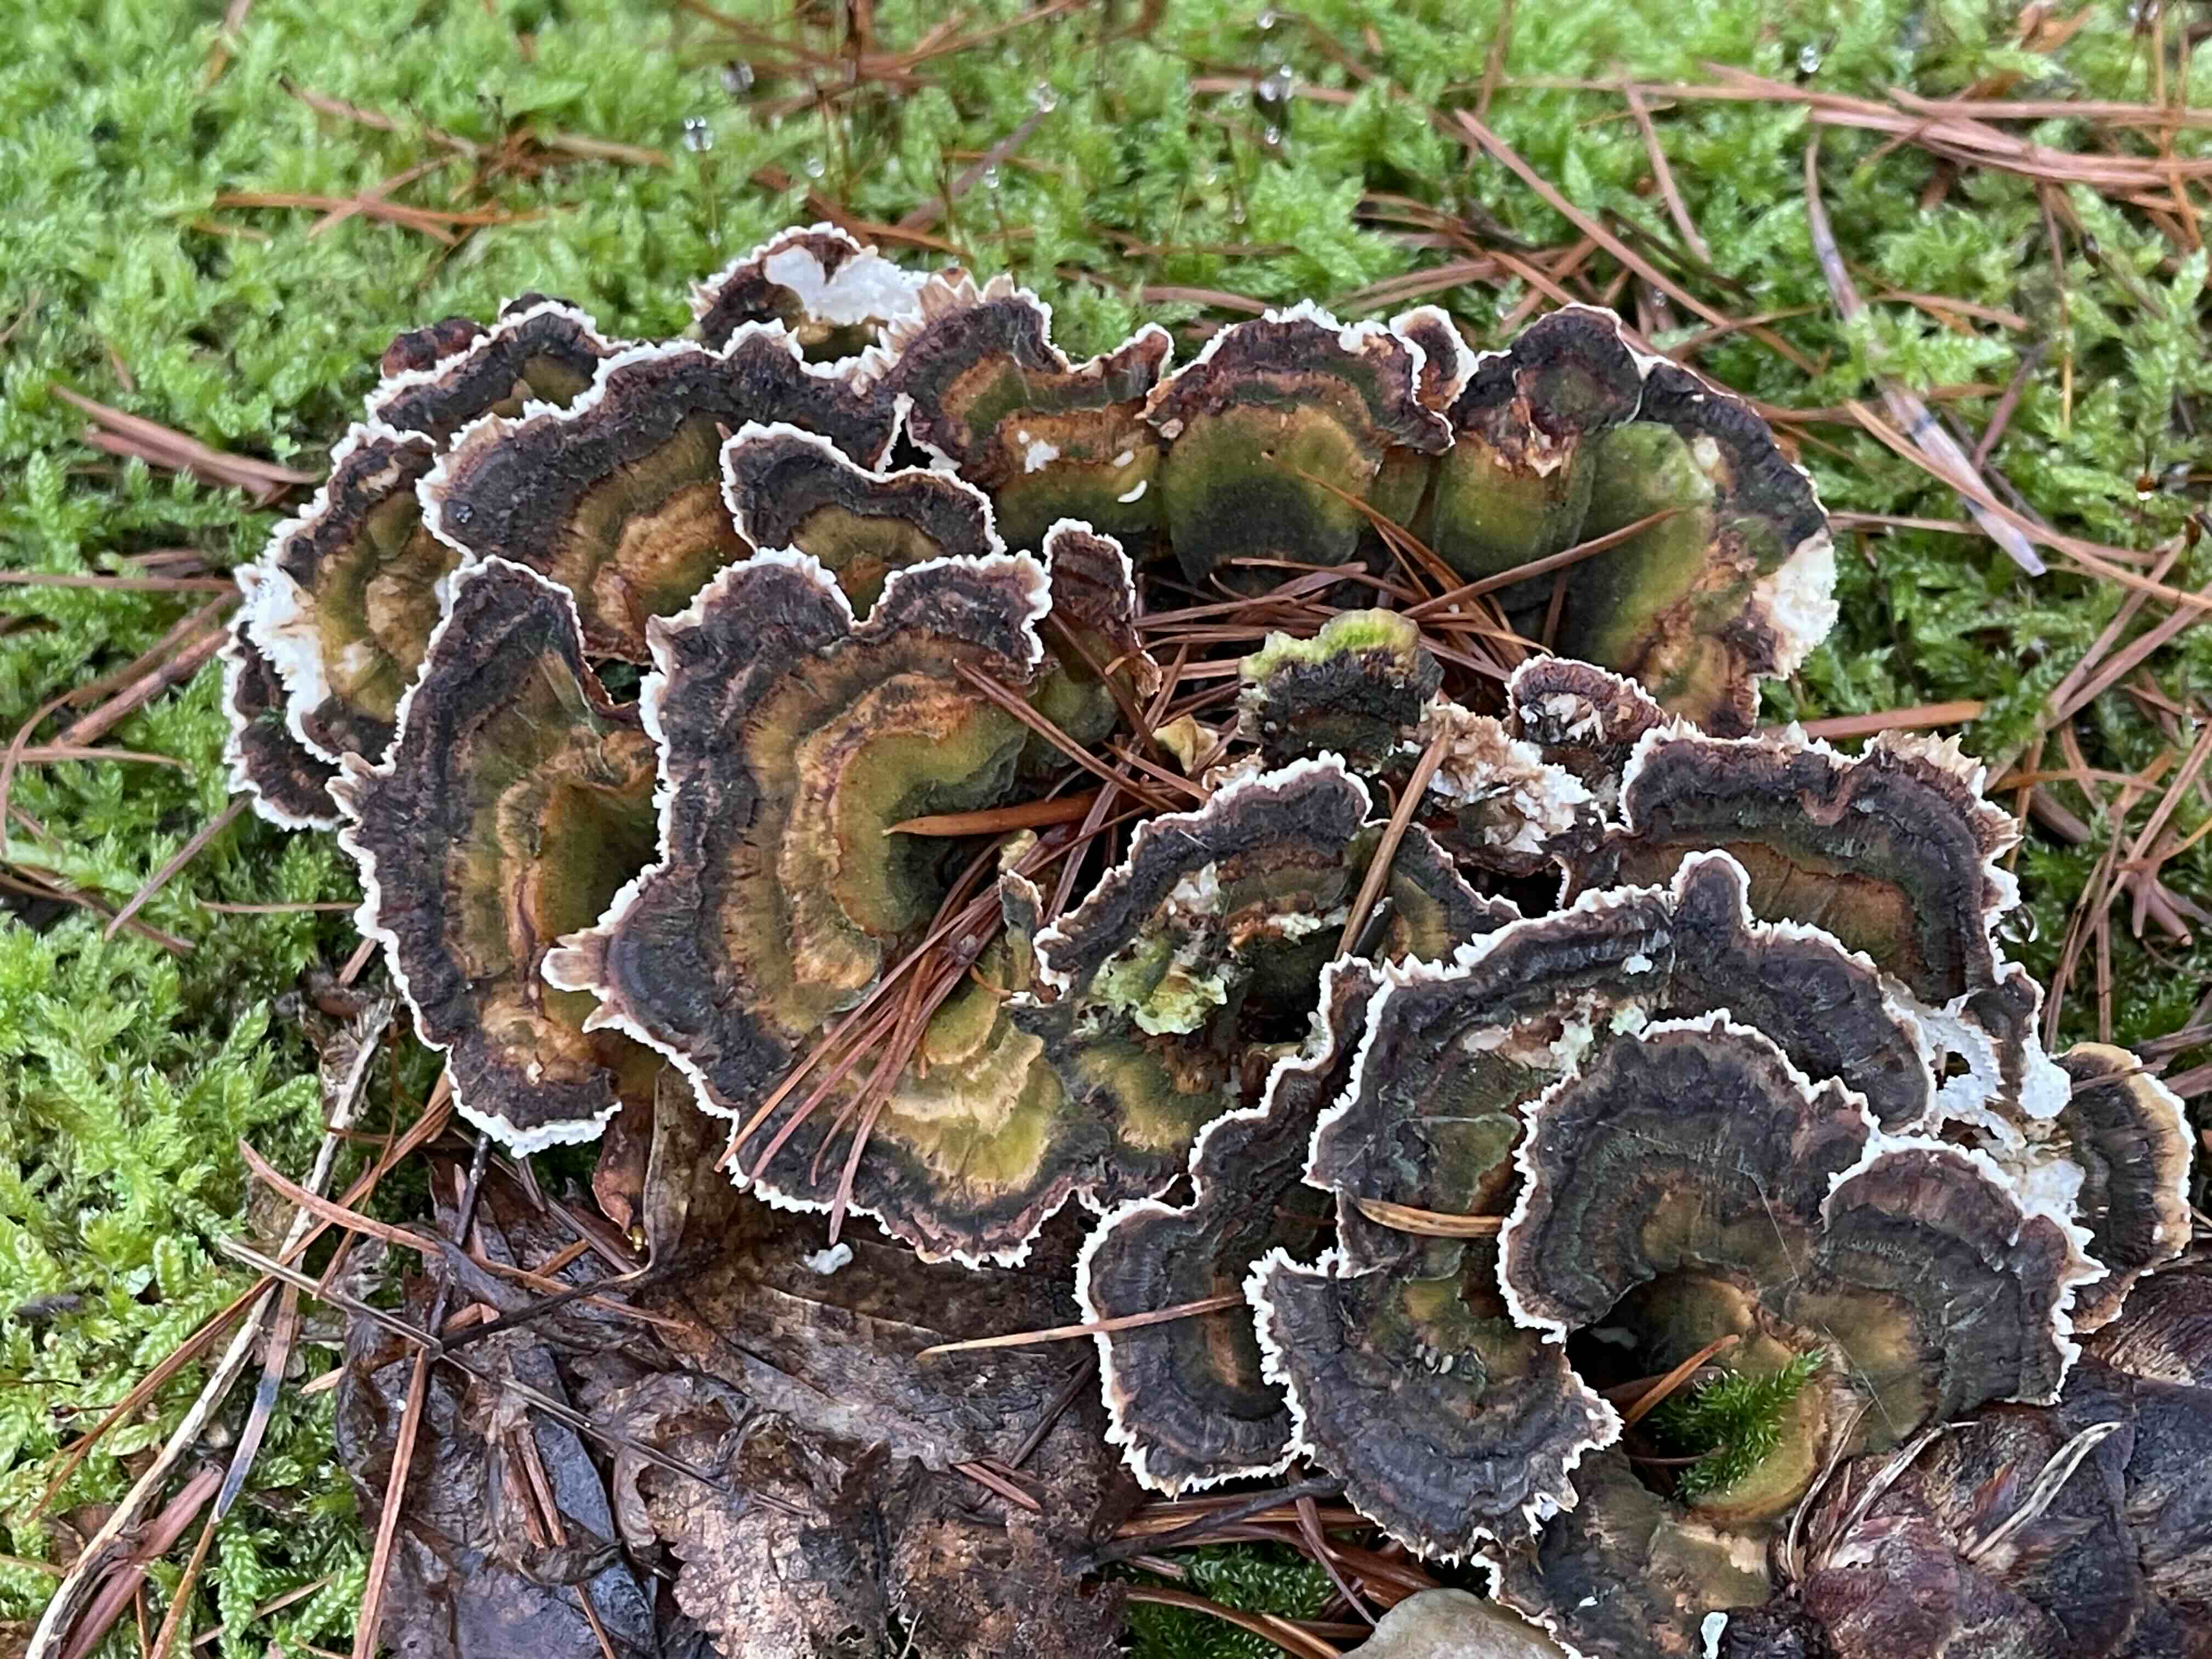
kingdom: Fungi
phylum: Basidiomycota
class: Agaricomycetes
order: Polyporales
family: Polyporaceae
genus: Trametes
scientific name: Trametes versicolor
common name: broget læderporesvamp
